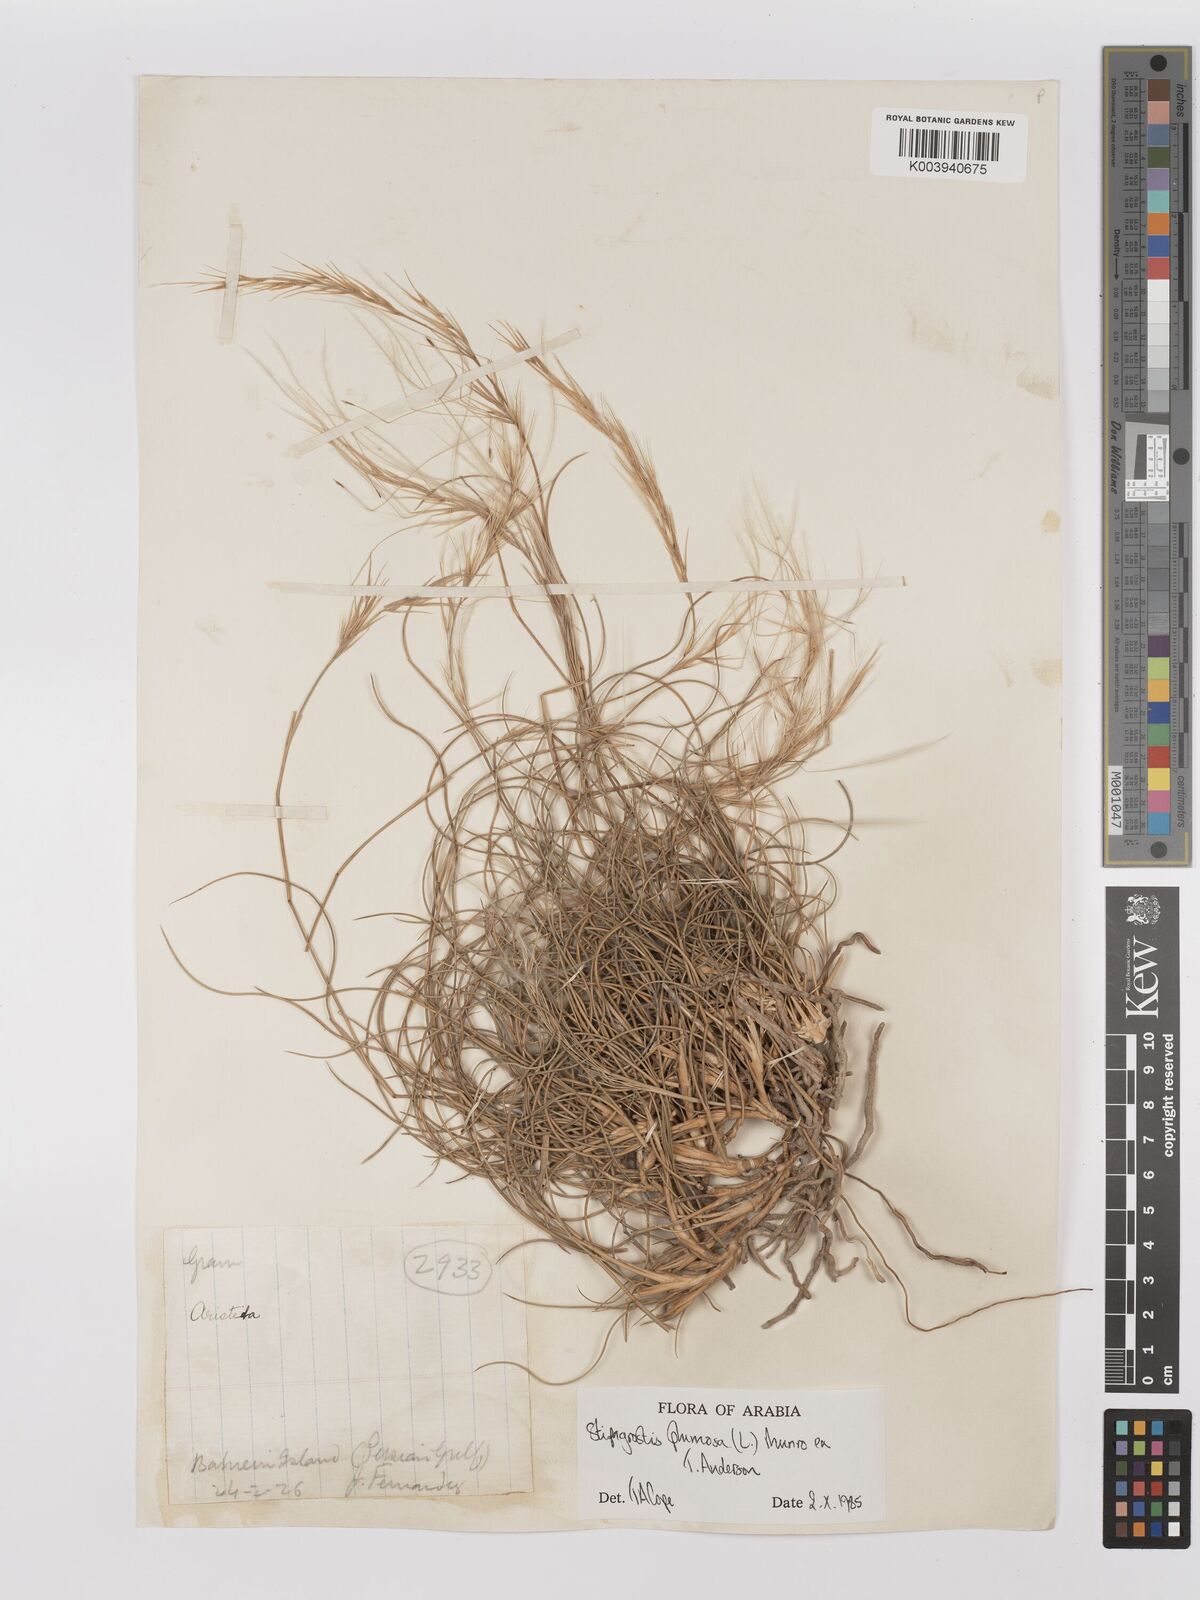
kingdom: Plantae
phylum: Tracheophyta
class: Liliopsida
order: Poales
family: Poaceae
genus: Stipagrostis
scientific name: Stipagrostis plumosa
